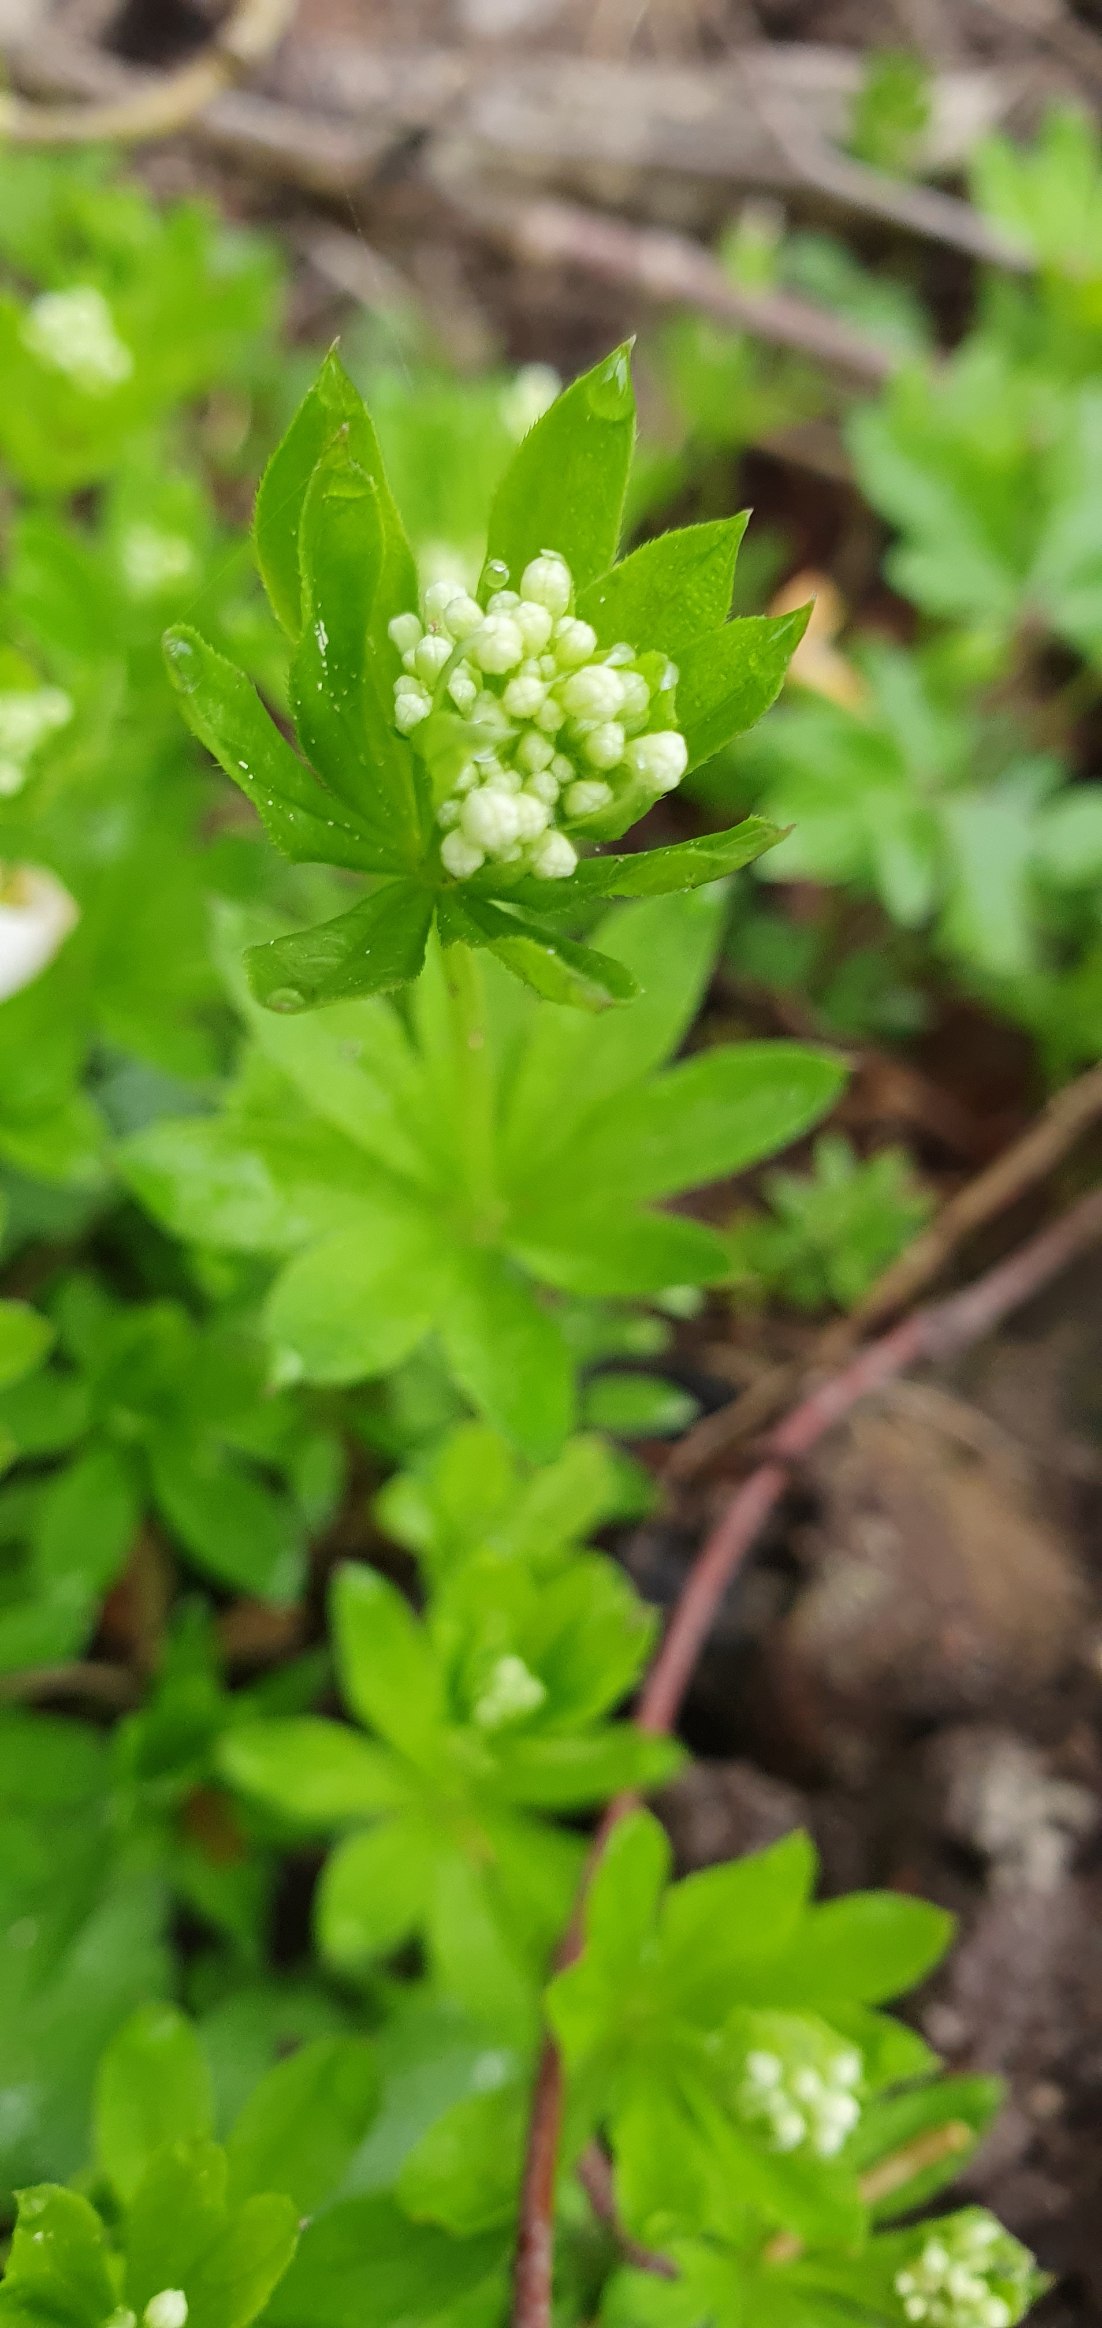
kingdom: Plantae
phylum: Tracheophyta
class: Magnoliopsida
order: Gentianales
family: Rubiaceae
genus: Galium
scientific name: Galium odoratum
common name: Skovmærke
